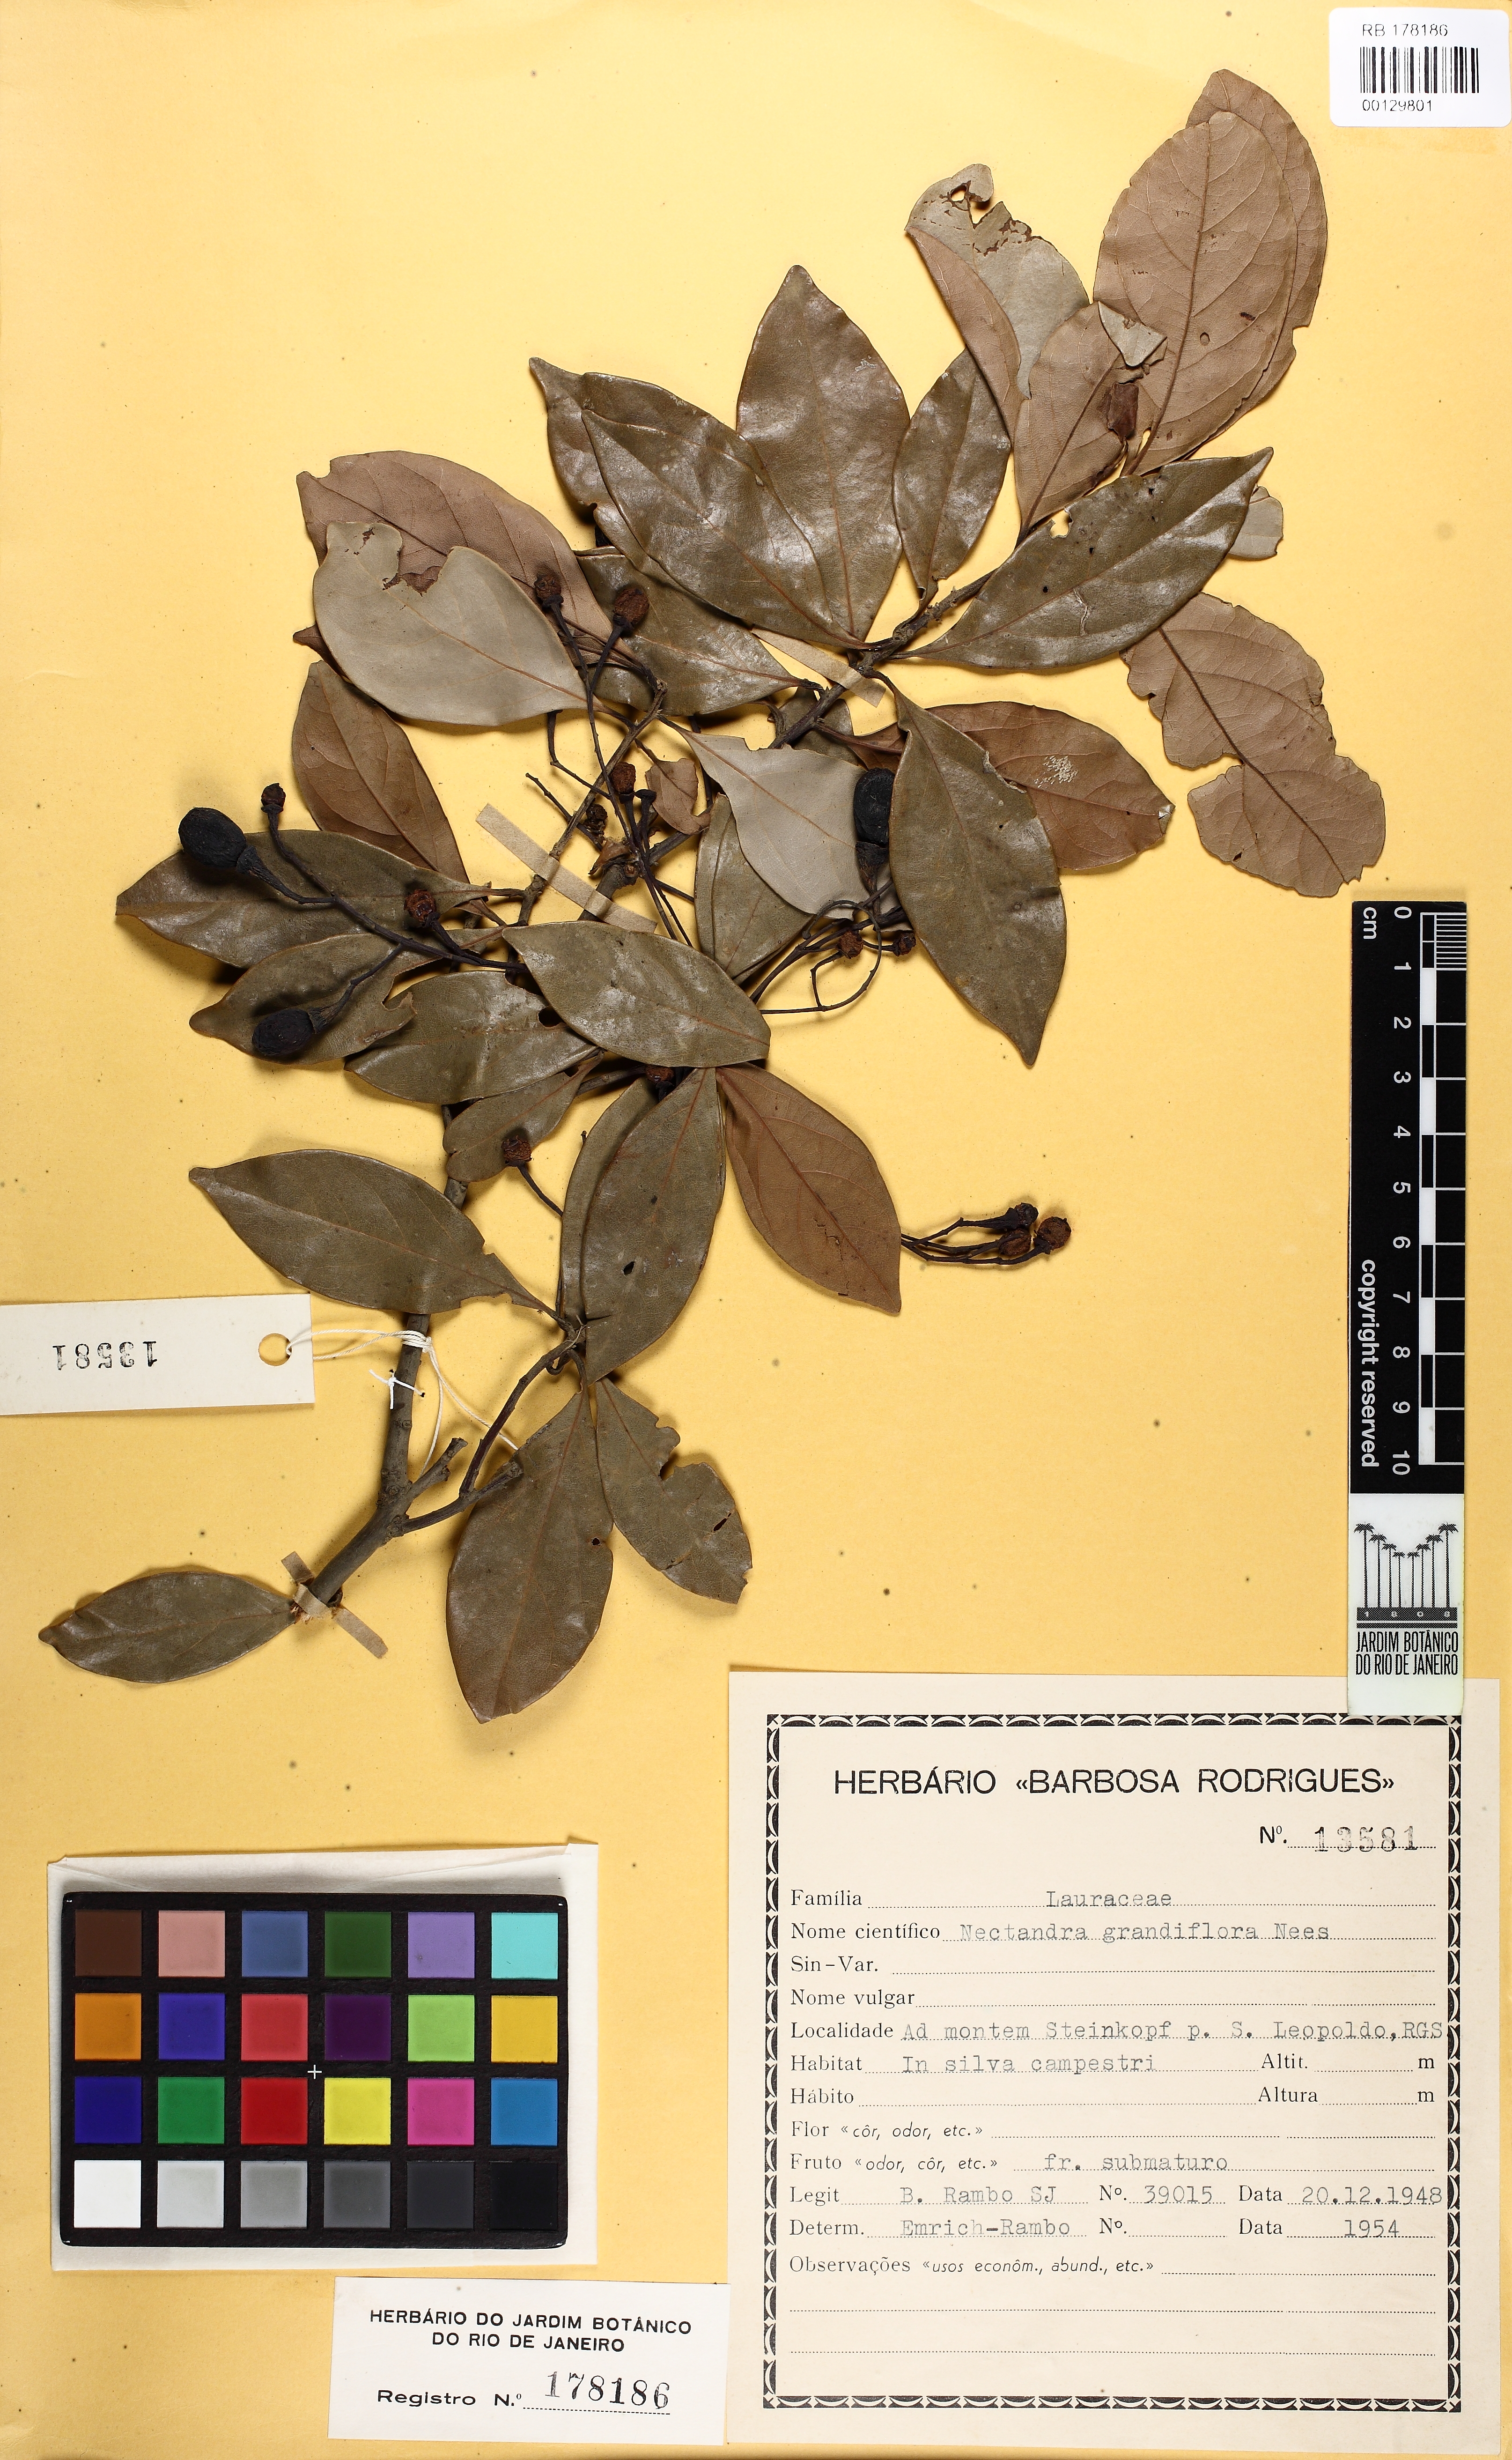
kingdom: Plantae
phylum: Tracheophyta
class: Magnoliopsida
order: Laurales
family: Lauraceae
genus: Nectandra
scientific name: Nectandra grandiflora
